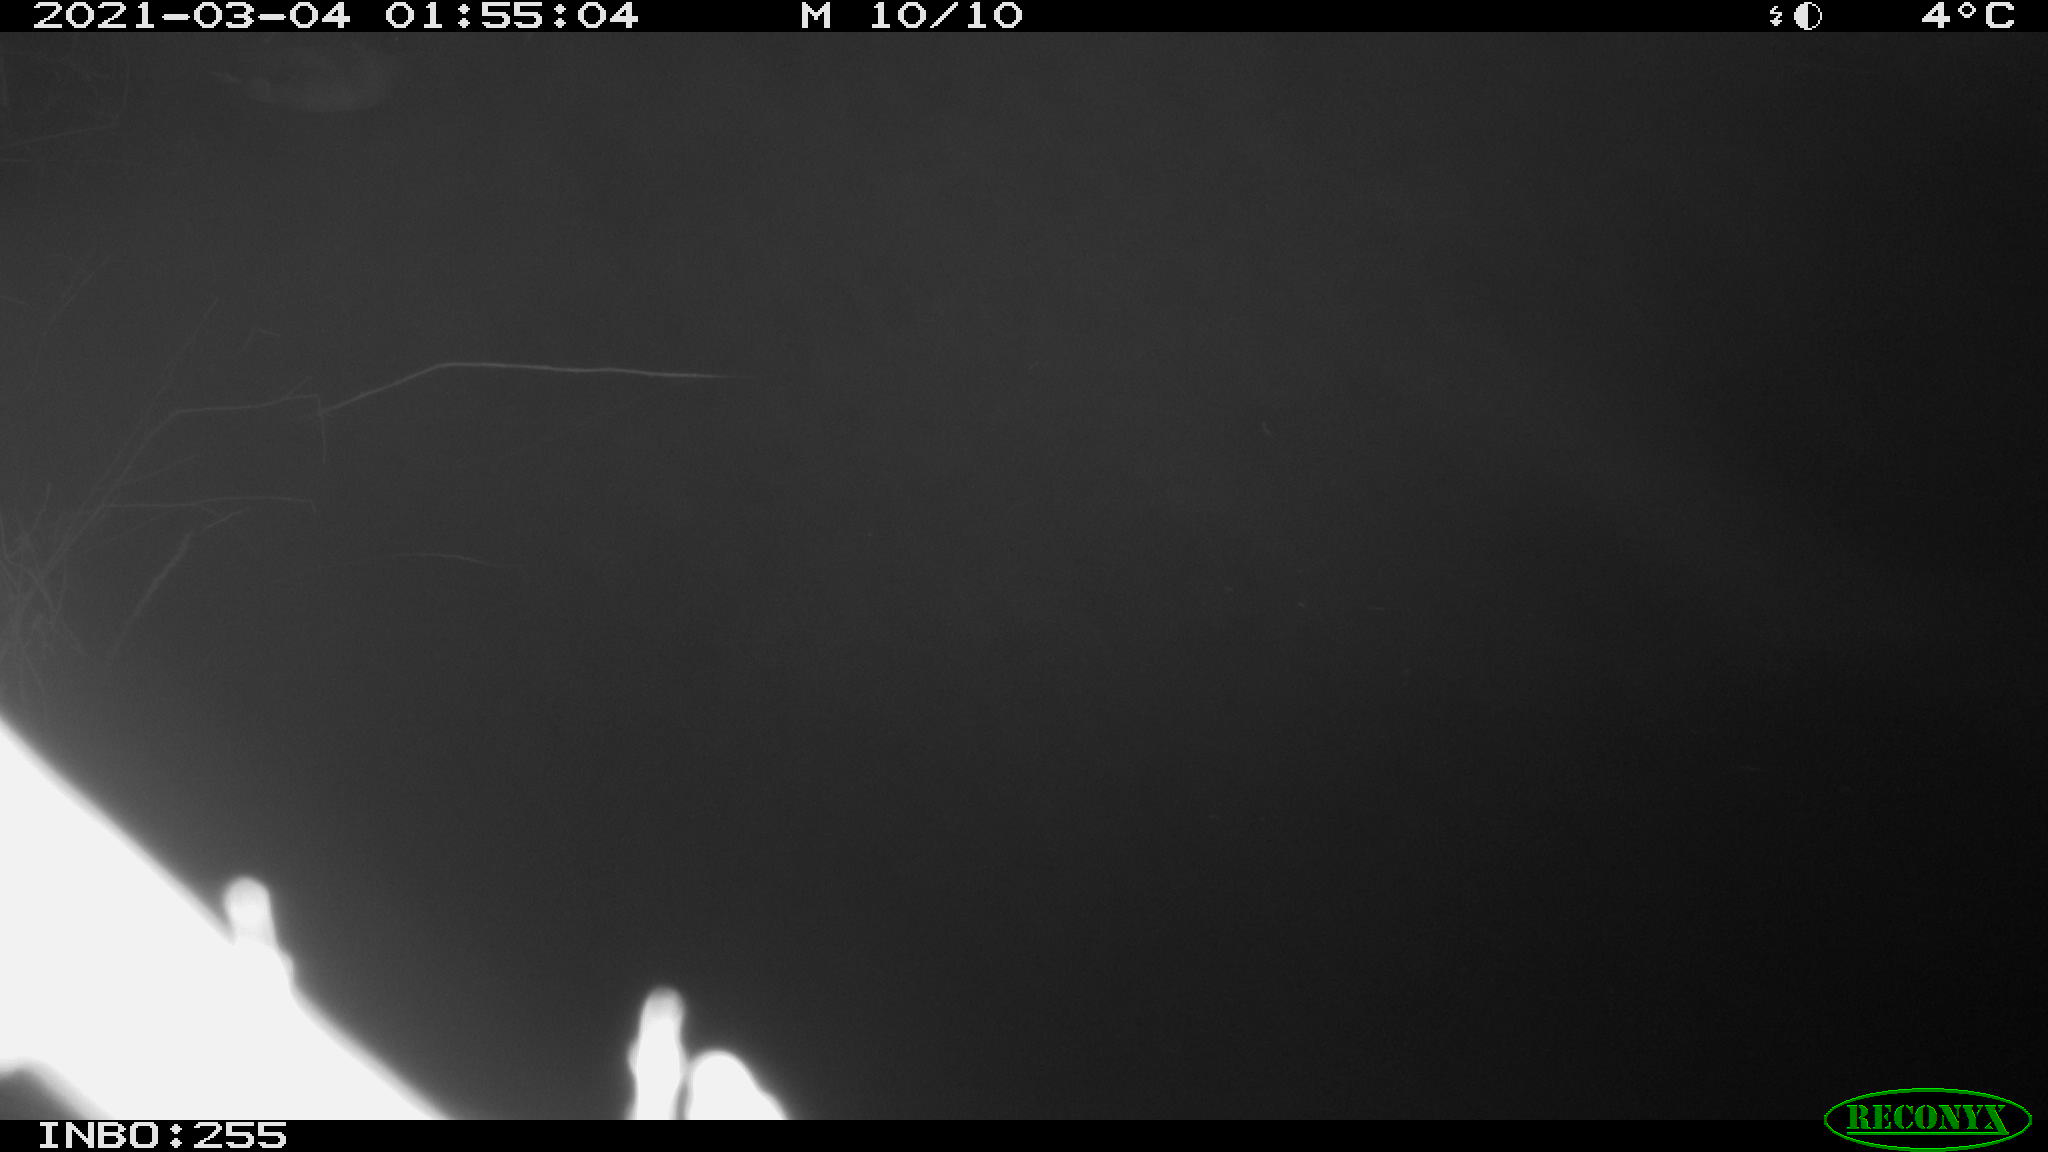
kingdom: Animalia
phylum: Chordata
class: Aves
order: Anseriformes
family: Anatidae
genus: Anas
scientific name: Anas platyrhynchos
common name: Mallard
